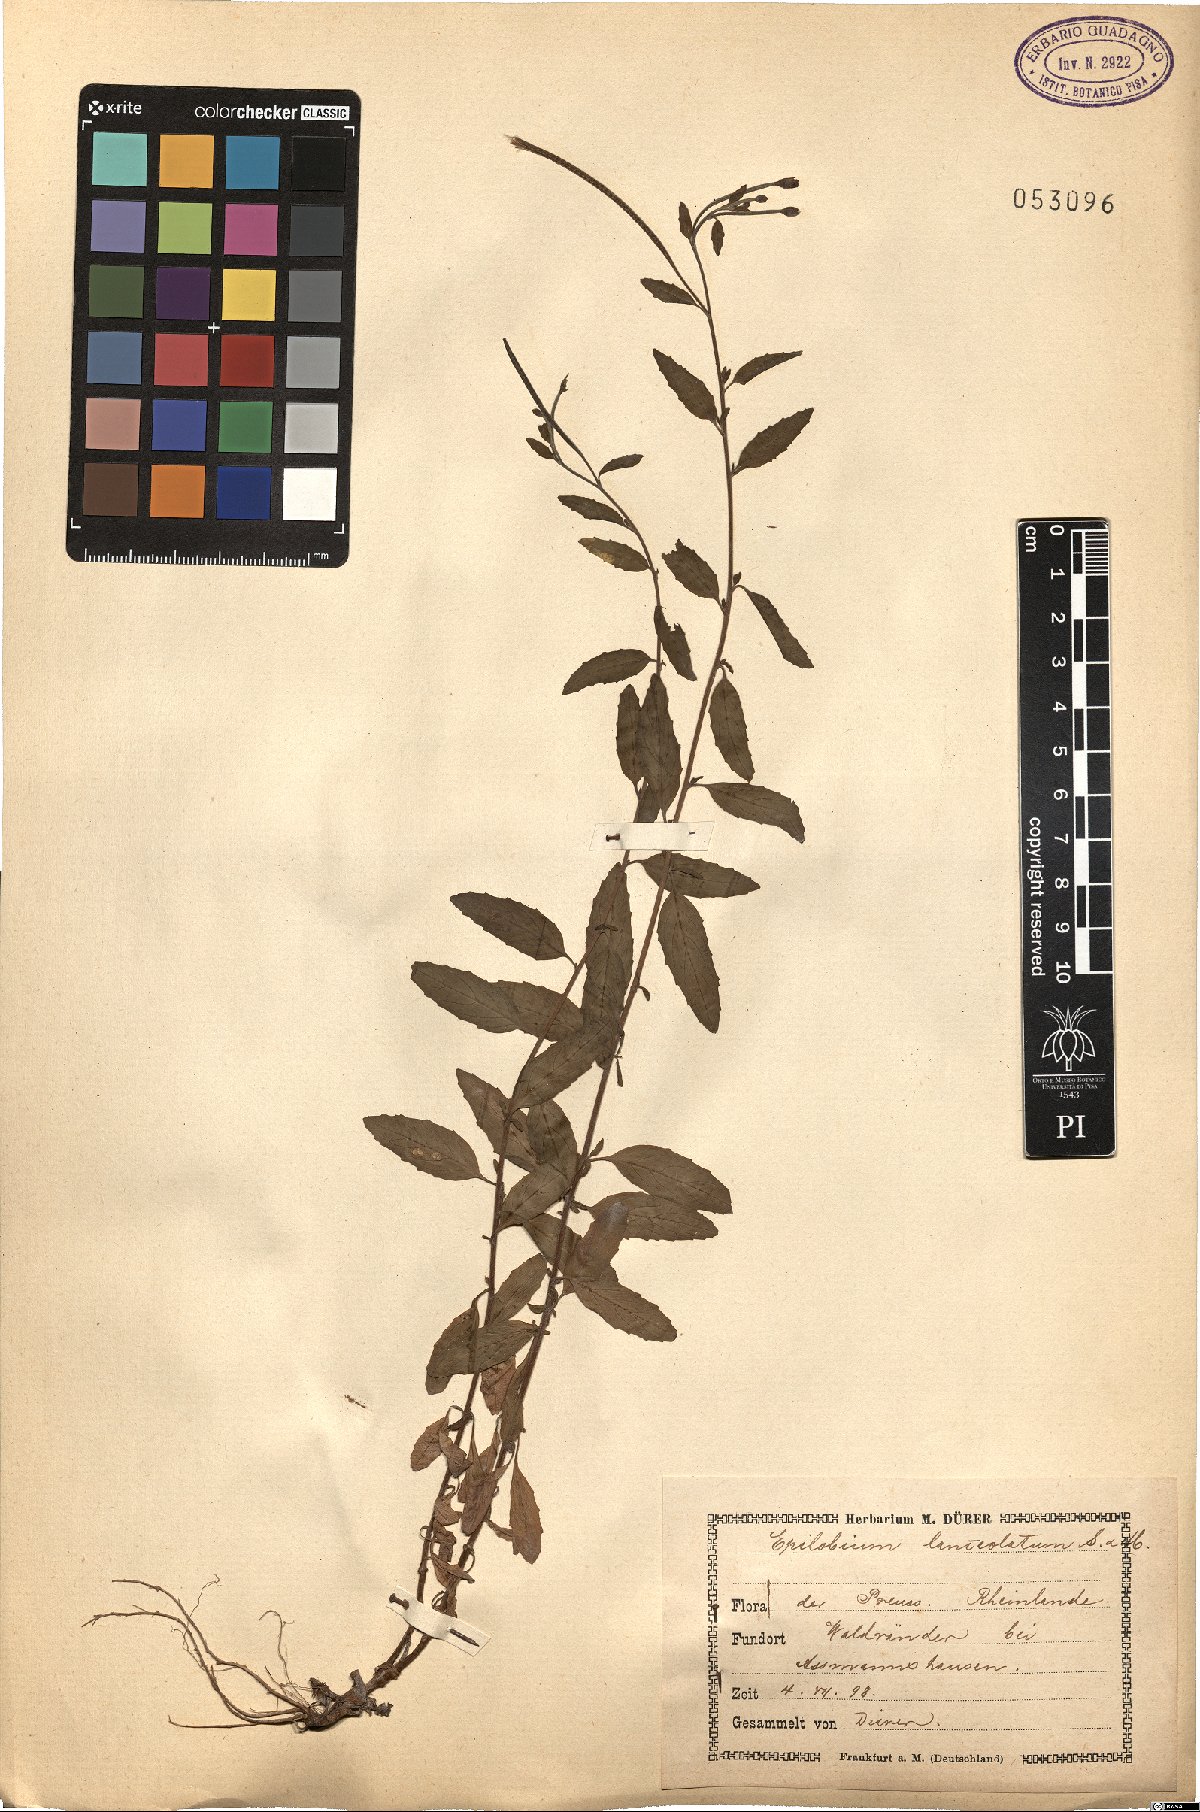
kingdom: Plantae
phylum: Tracheophyta
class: Magnoliopsida
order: Myrtales
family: Onagraceae
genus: Epilobium
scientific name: Epilobium lanceolatum
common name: Spear-leaved willowherb
